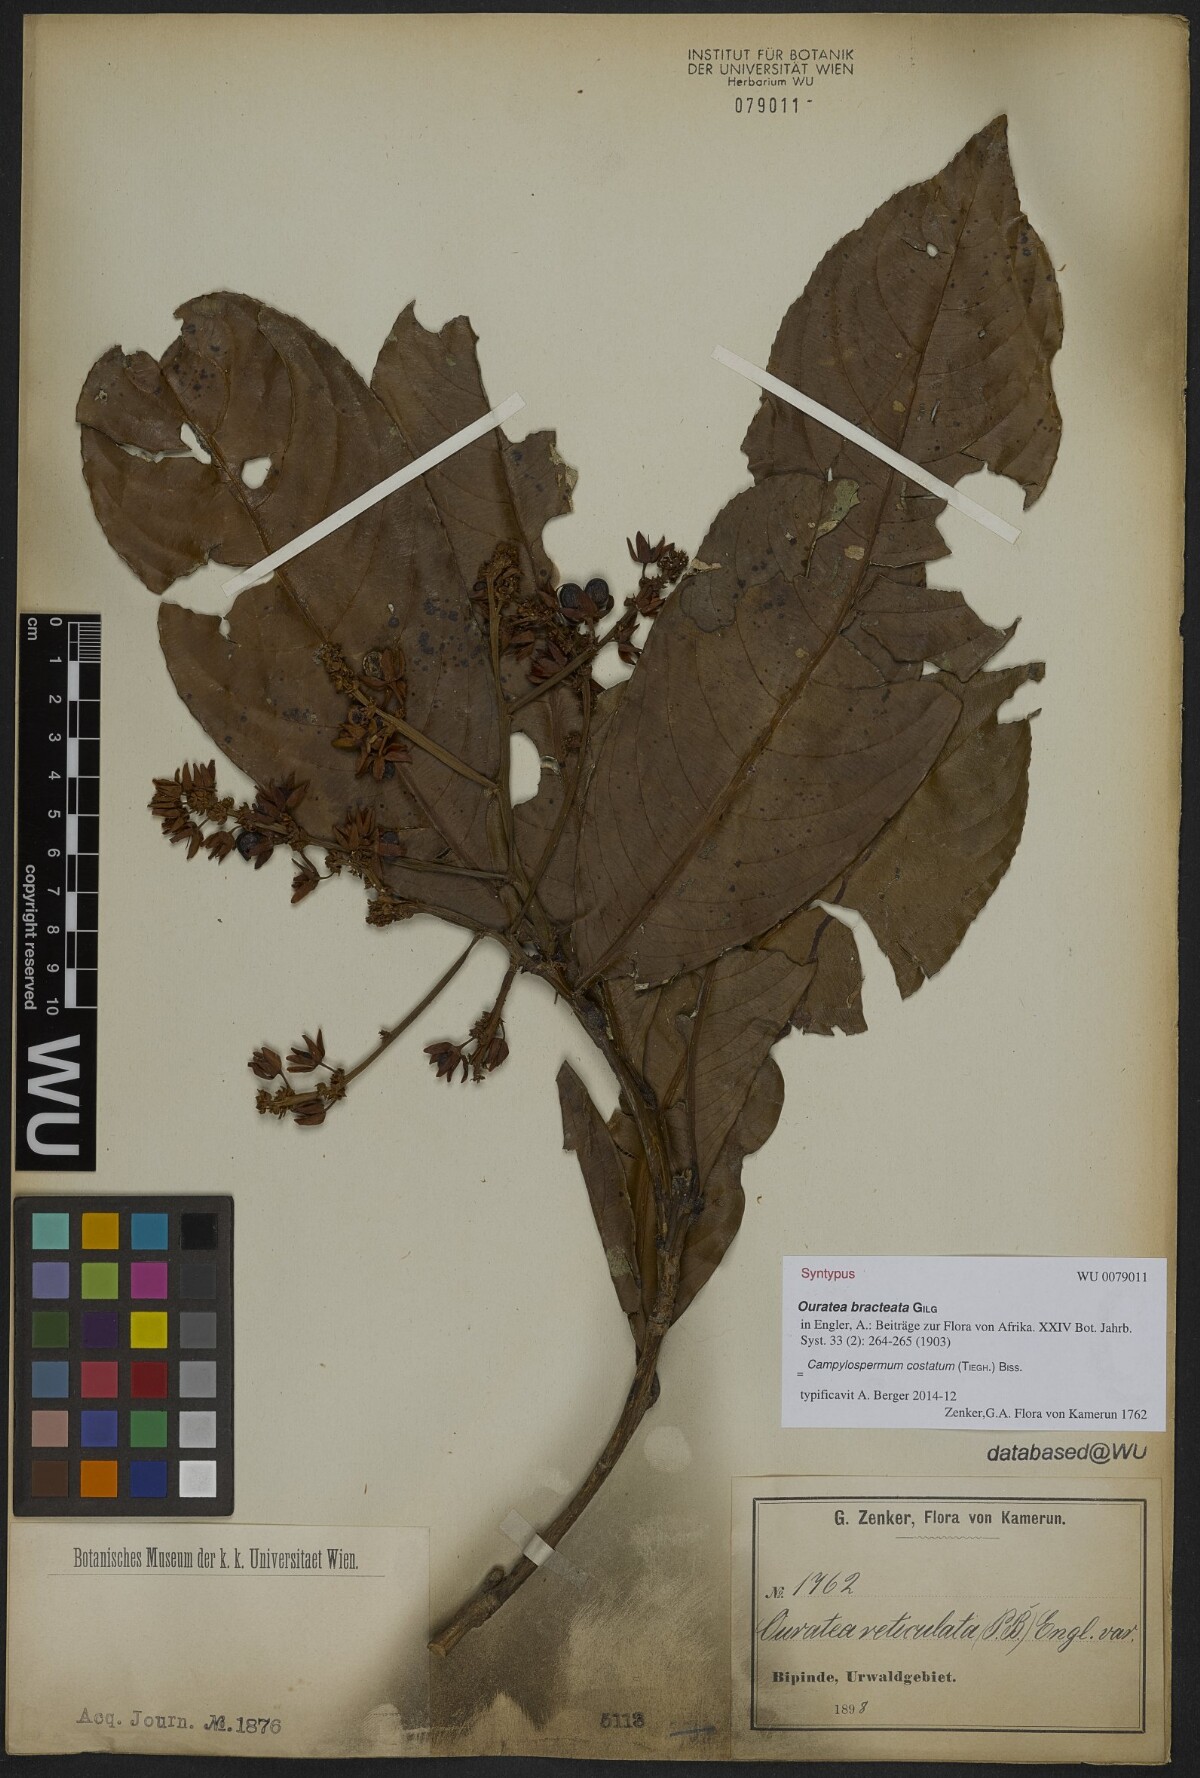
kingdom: Plantae
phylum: Tracheophyta
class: Magnoliopsida
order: Malpighiales
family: Ochnaceae
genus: Campylospermum
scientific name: Campylospermum costatum
